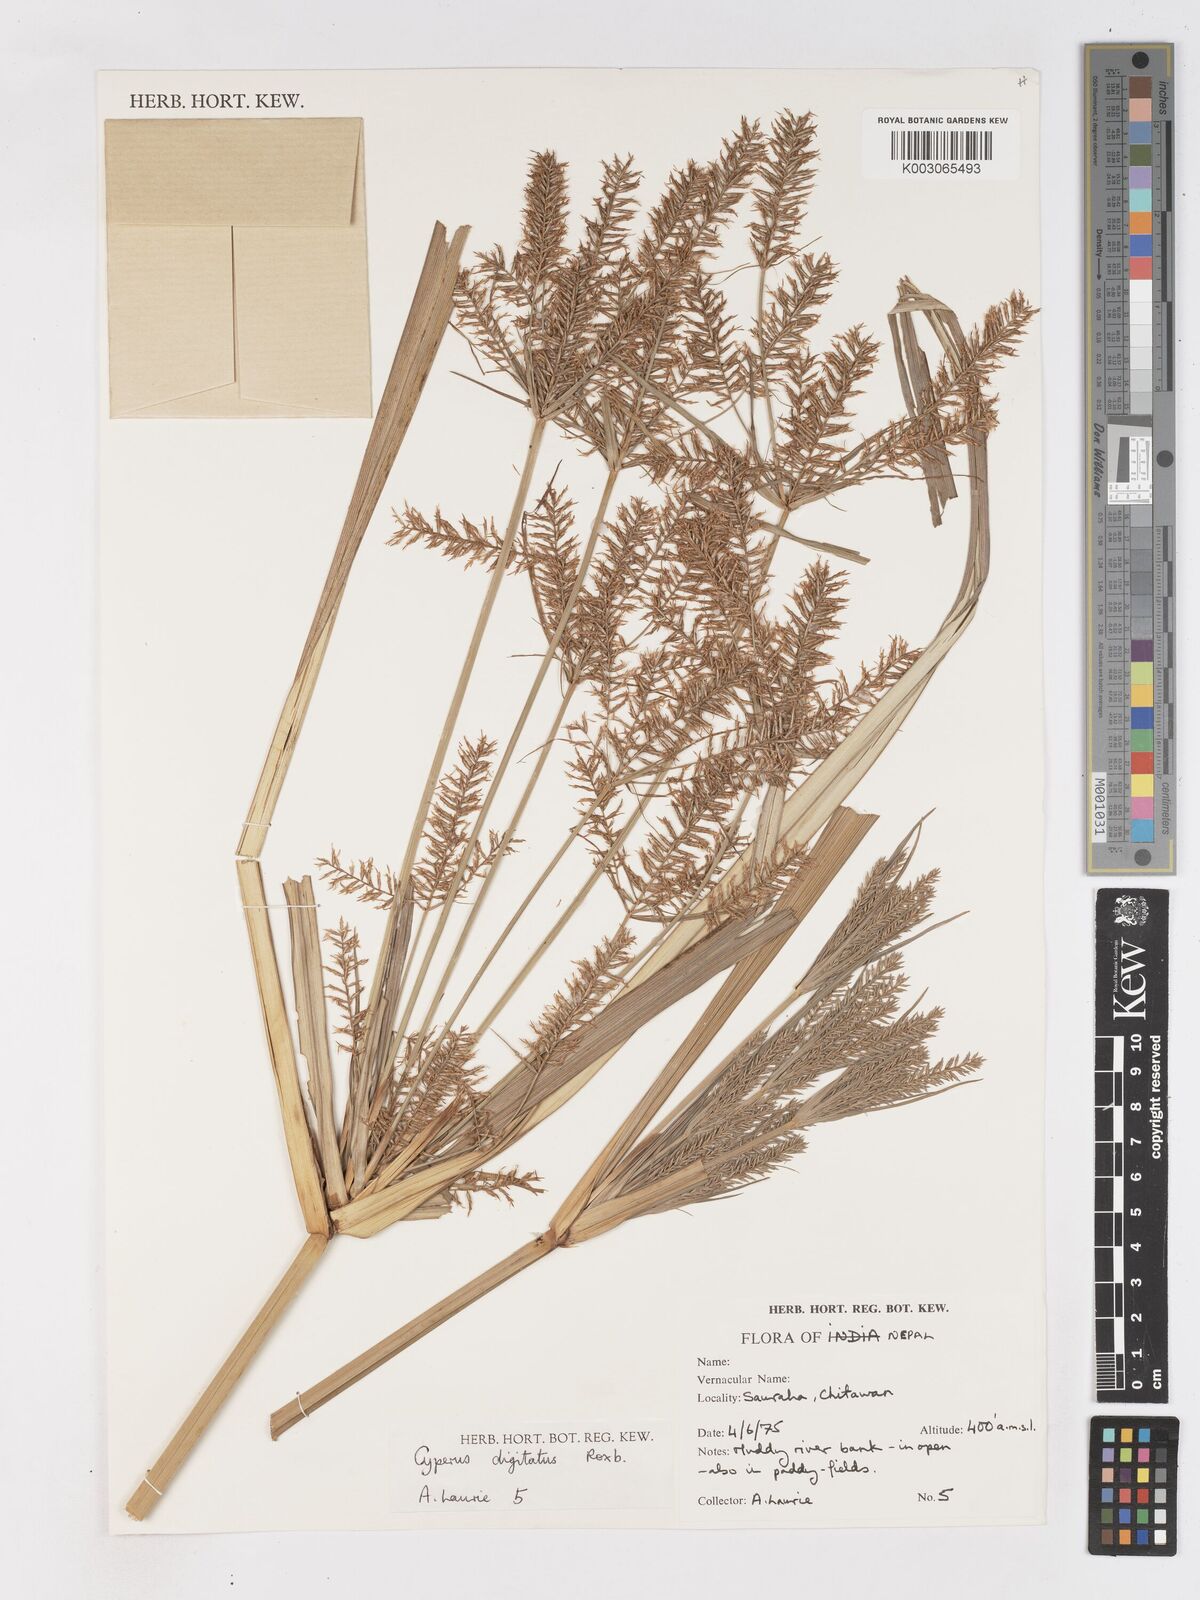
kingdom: Plantae
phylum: Tracheophyta
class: Liliopsida
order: Poales
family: Cyperaceae
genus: Cyperus
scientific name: Cyperus digitatus
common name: Finger flatsedge
